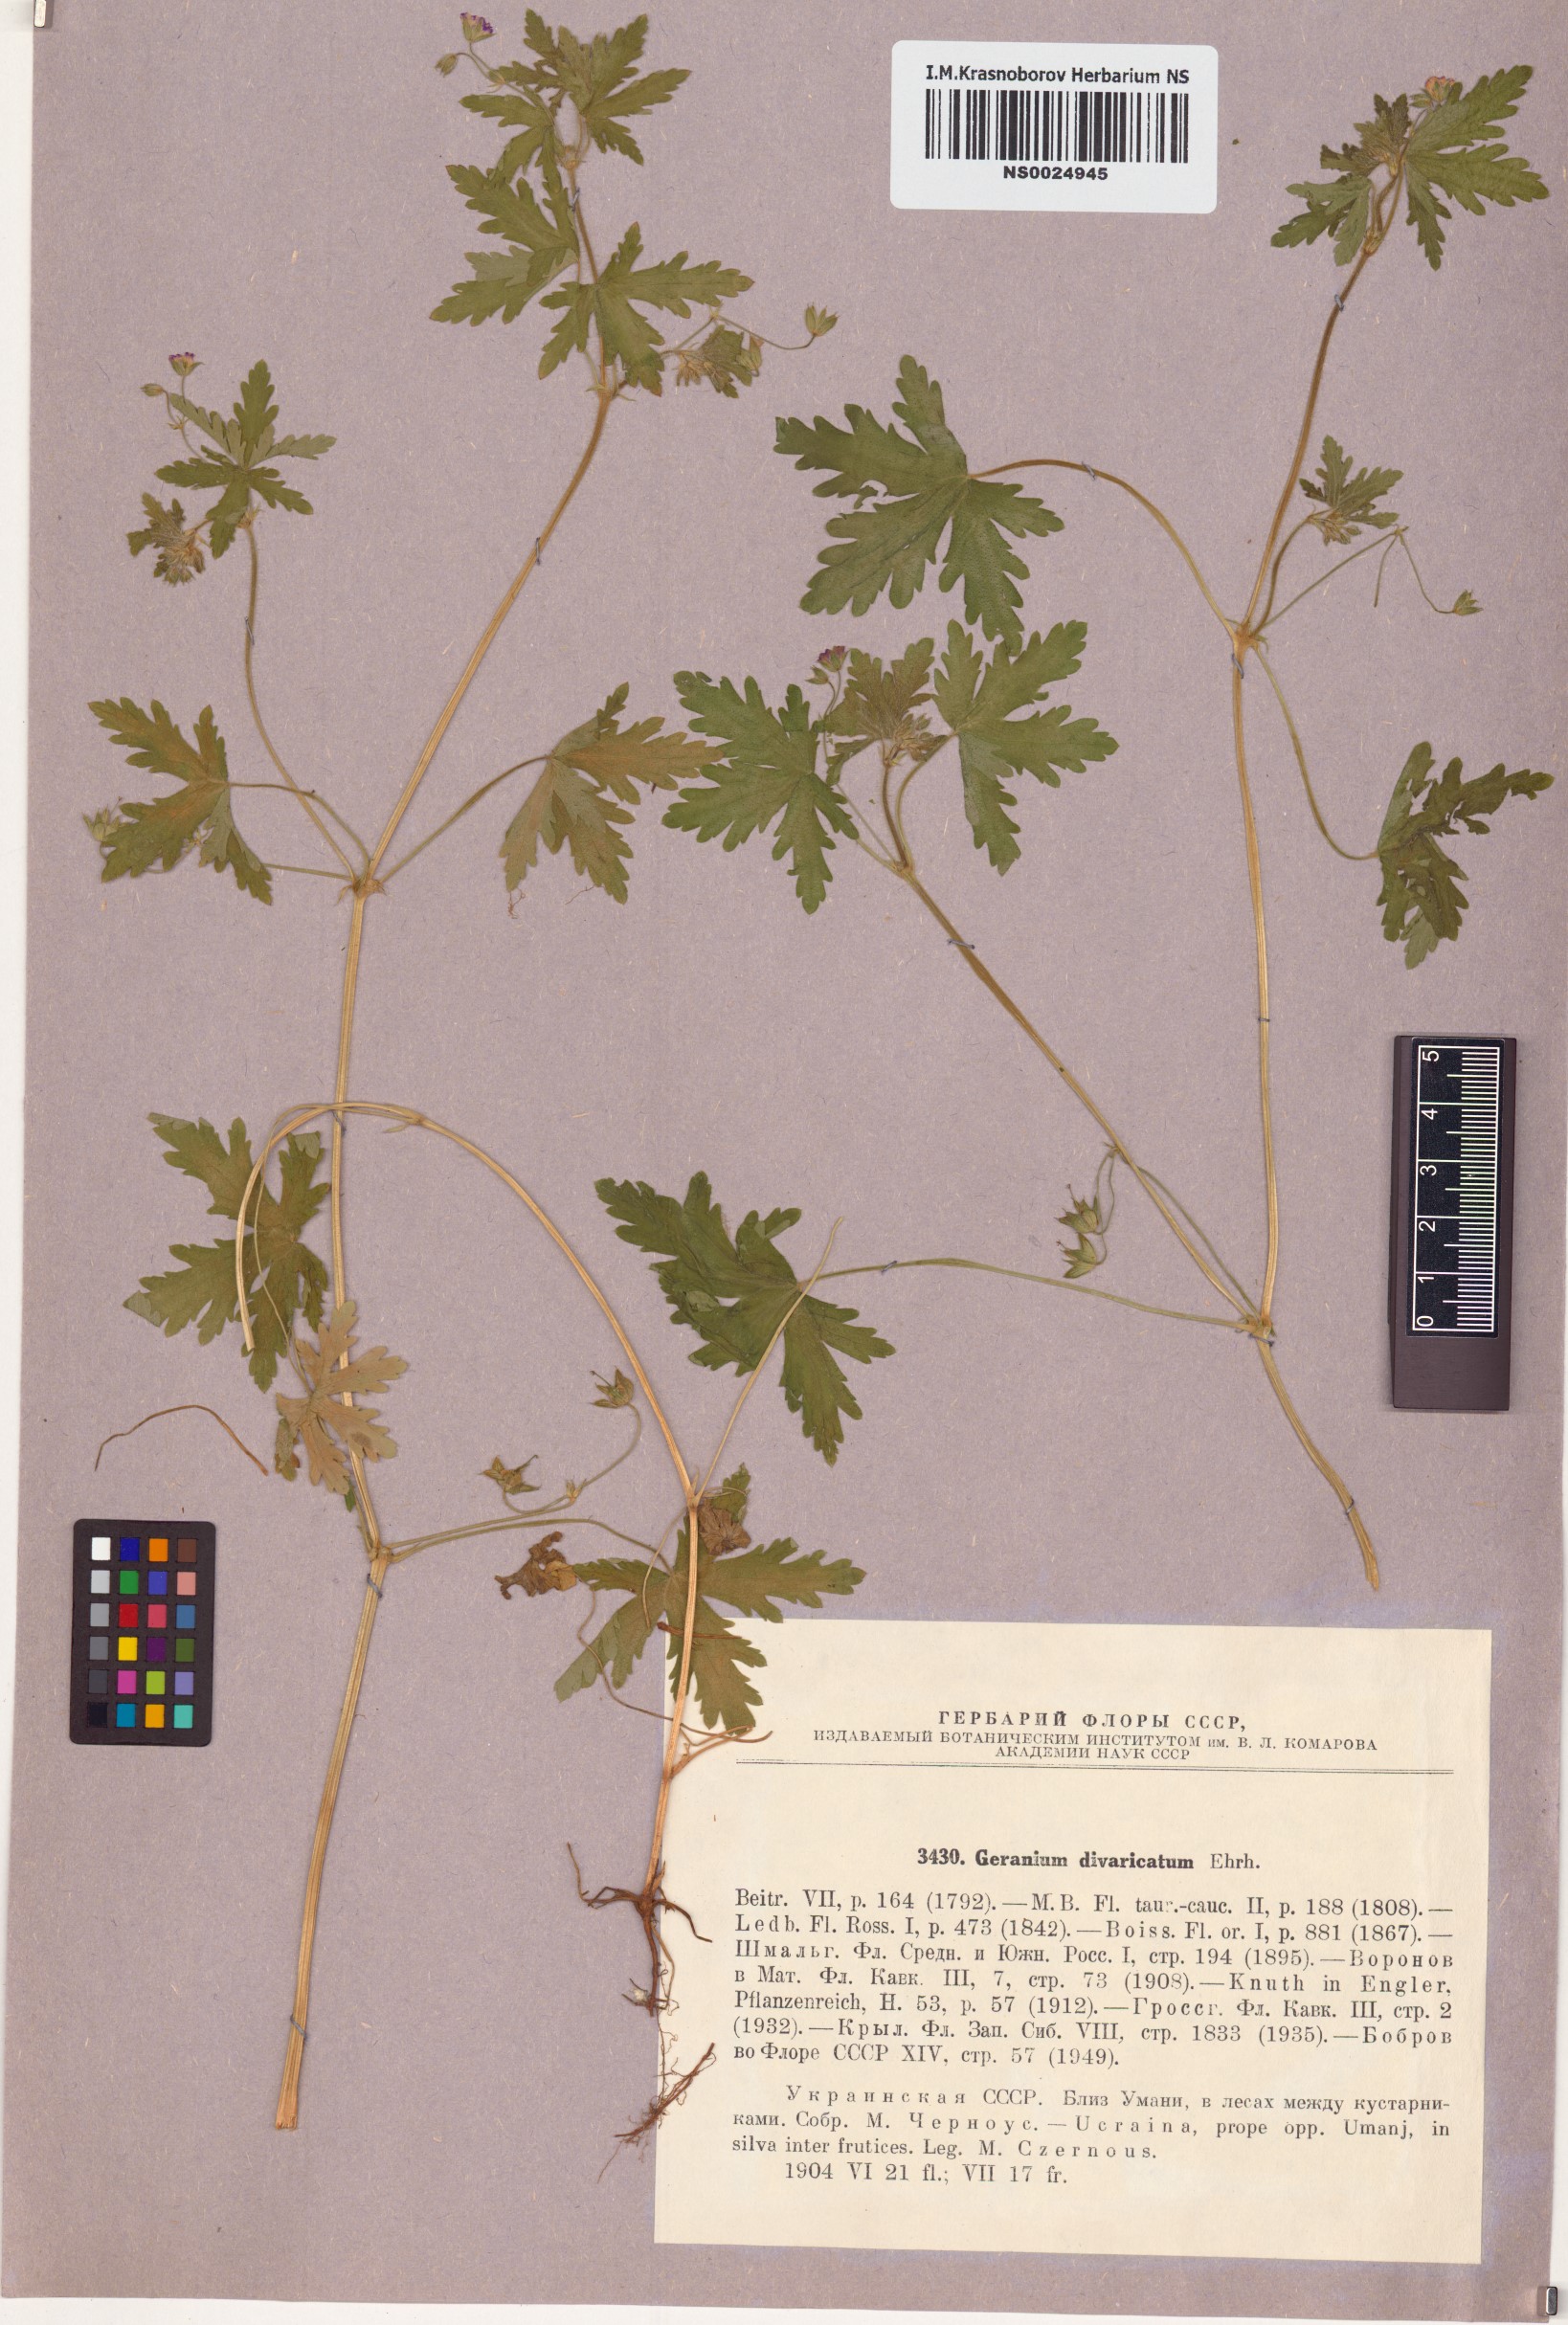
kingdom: Plantae
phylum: Tracheophyta
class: Magnoliopsida
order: Geraniales
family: Geraniaceae
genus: Geranium
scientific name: Geranium divaricatum
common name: Spreading crane's-bill
